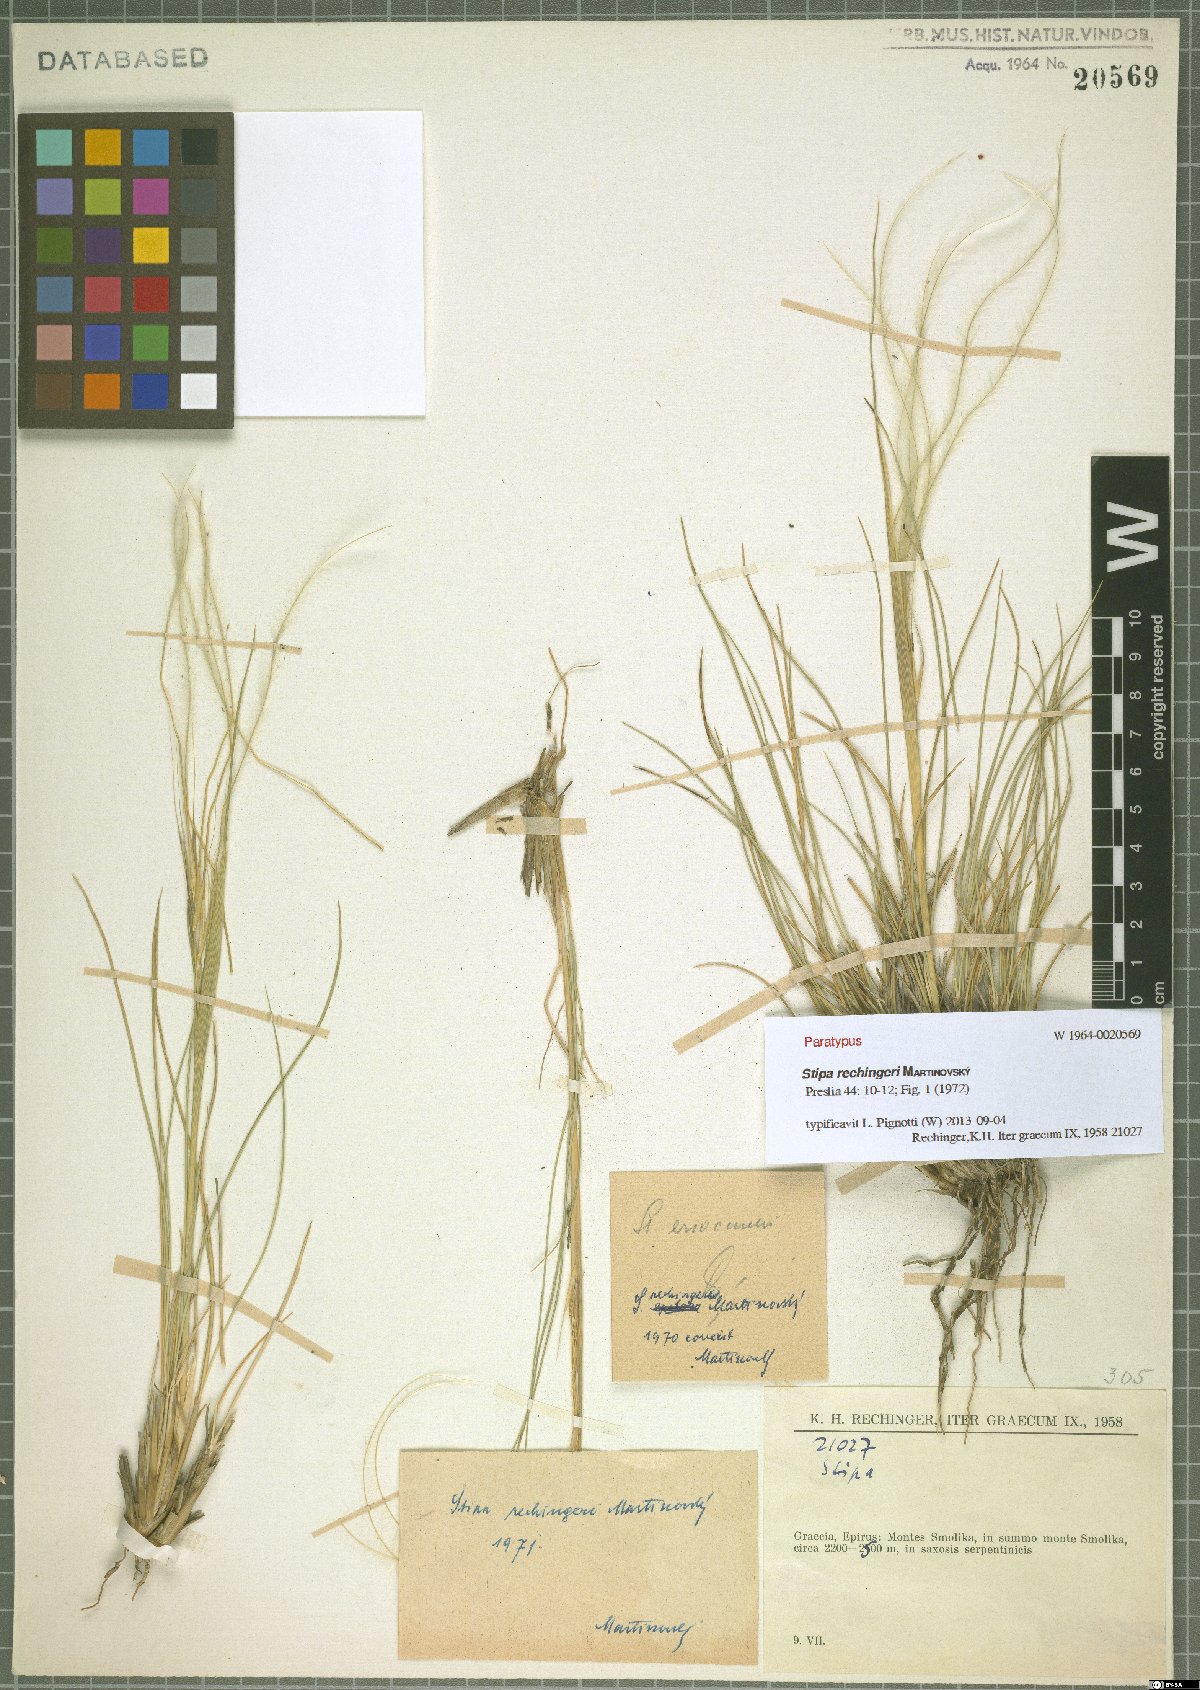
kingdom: Plantae
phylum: Tracheophyta
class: Liliopsida
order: Poales
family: Poaceae
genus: Stipa
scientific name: Stipa rechingeri
